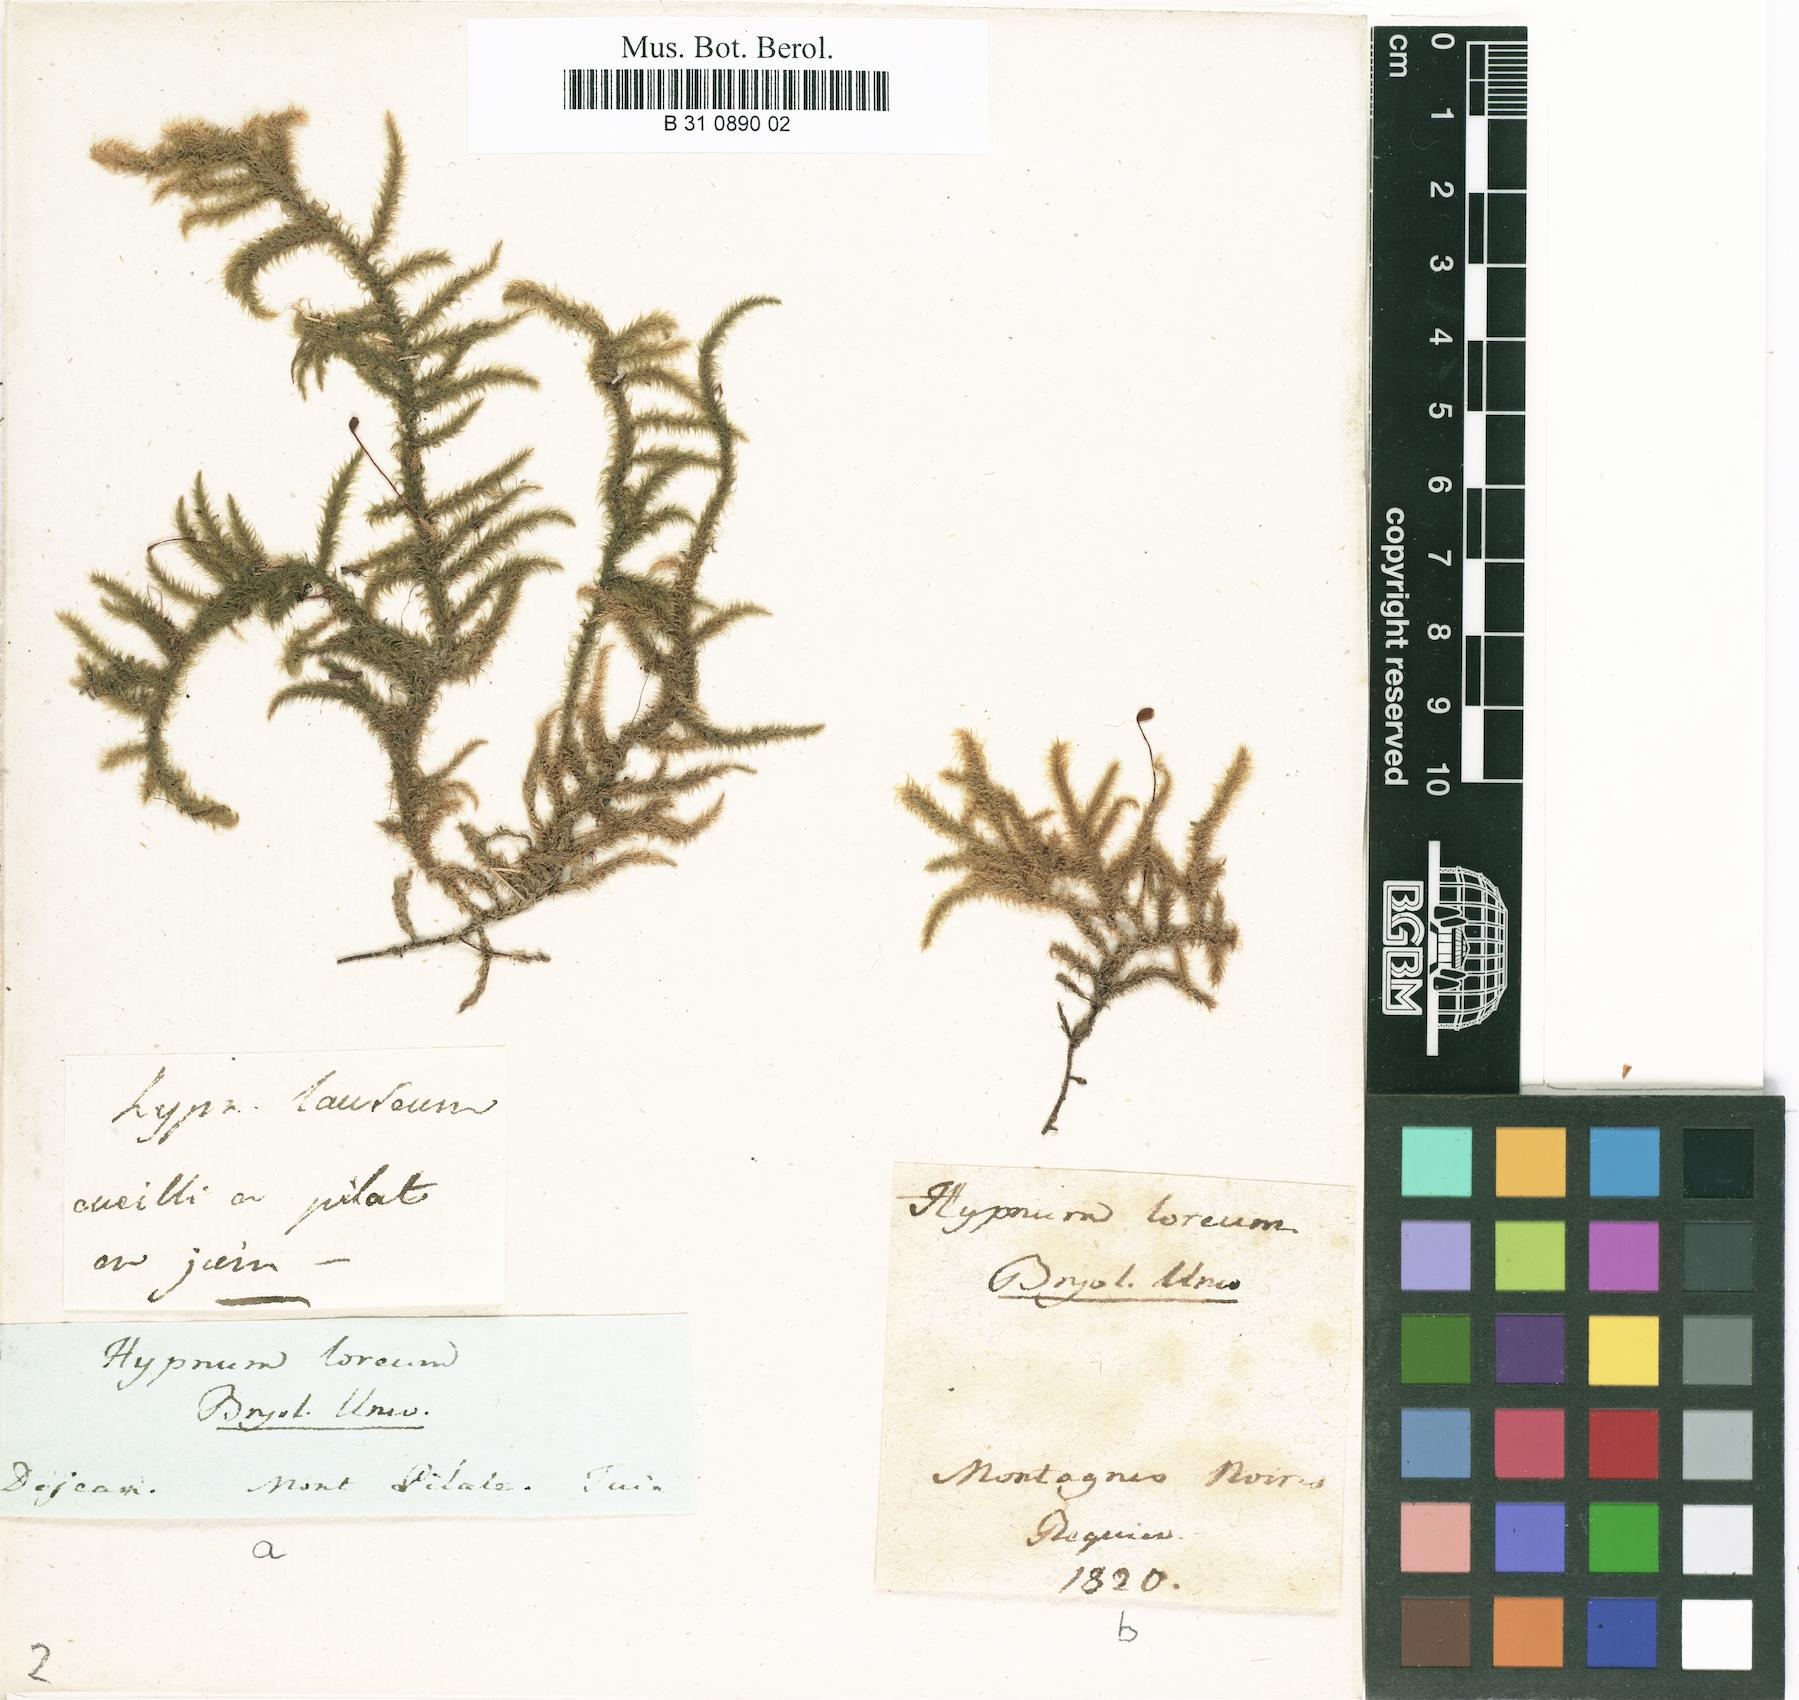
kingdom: Plantae
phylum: Bryophyta
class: Bryopsida
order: Hypnales
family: Hylocomiaceae
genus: Rhytidiadelphus
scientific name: Rhytidiadelphus loreus
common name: Lanky moss
